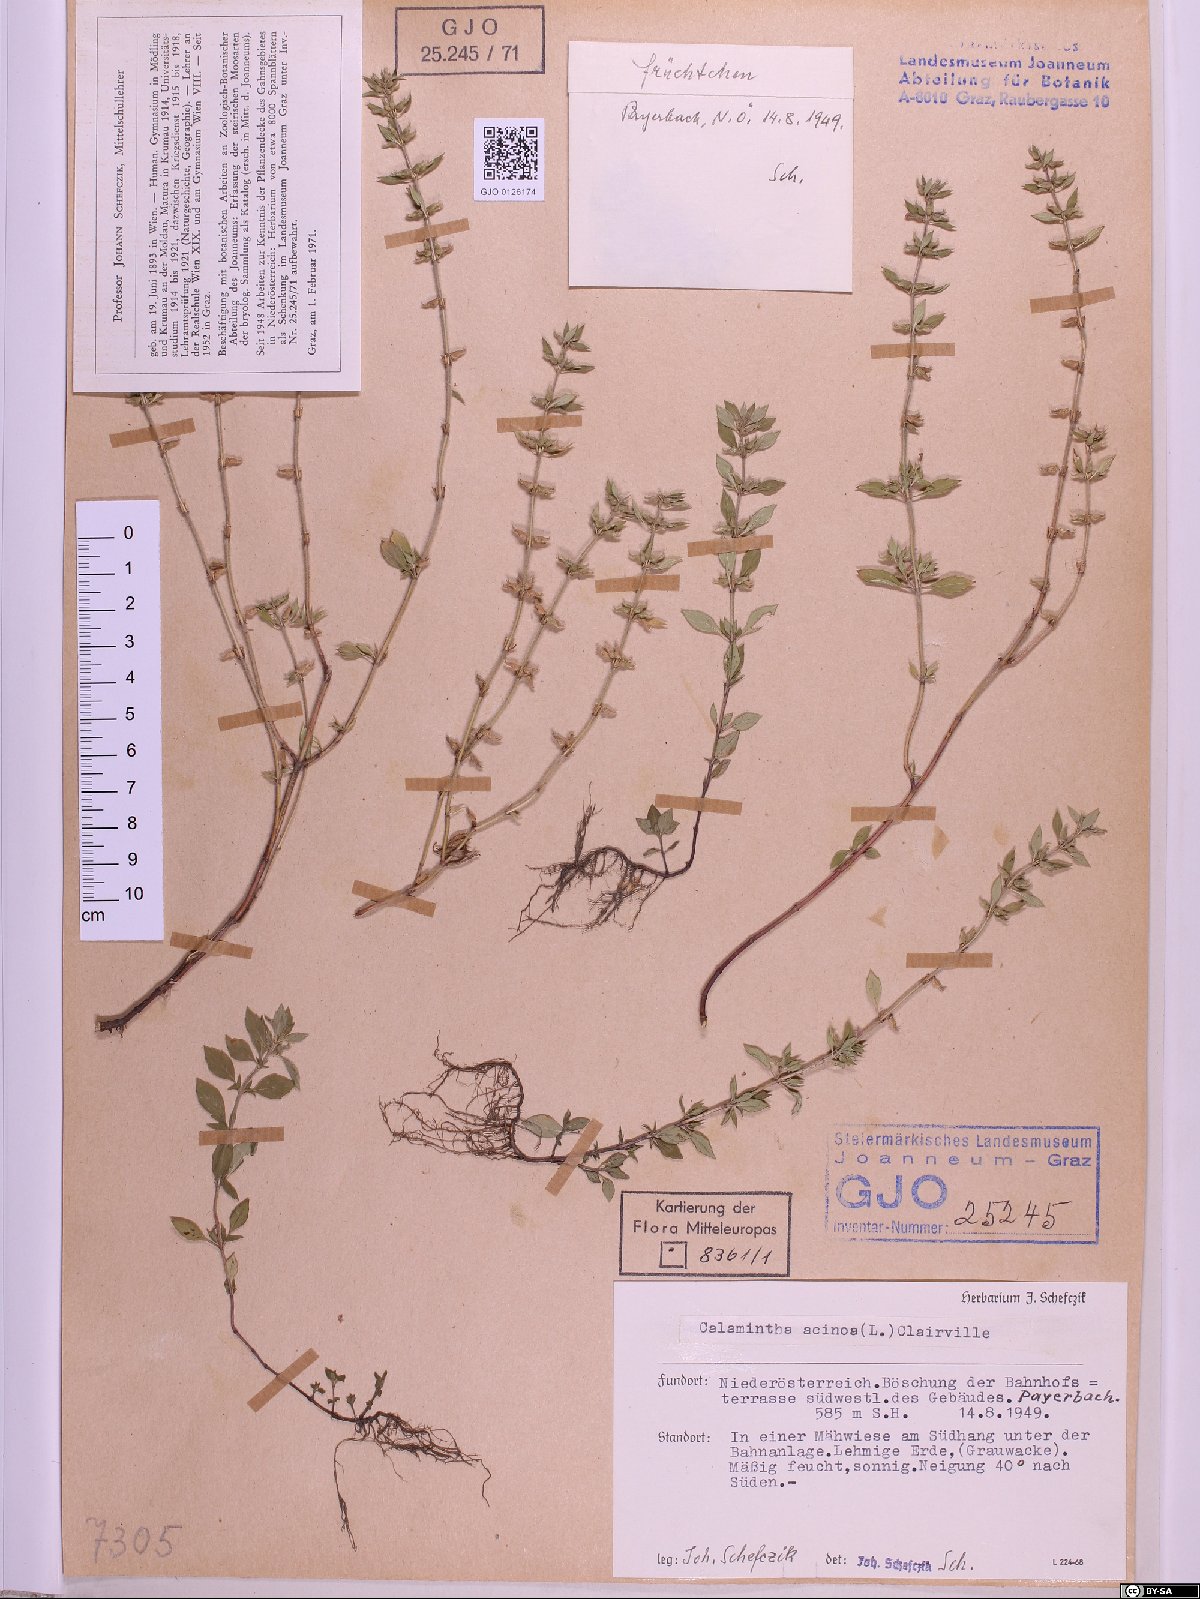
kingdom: Plantae
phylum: Tracheophyta
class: Magnoliopsida
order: Lamiales
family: Lamiaceae
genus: Clinopodium
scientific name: Clinopodium acinos
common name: Basil thyme
